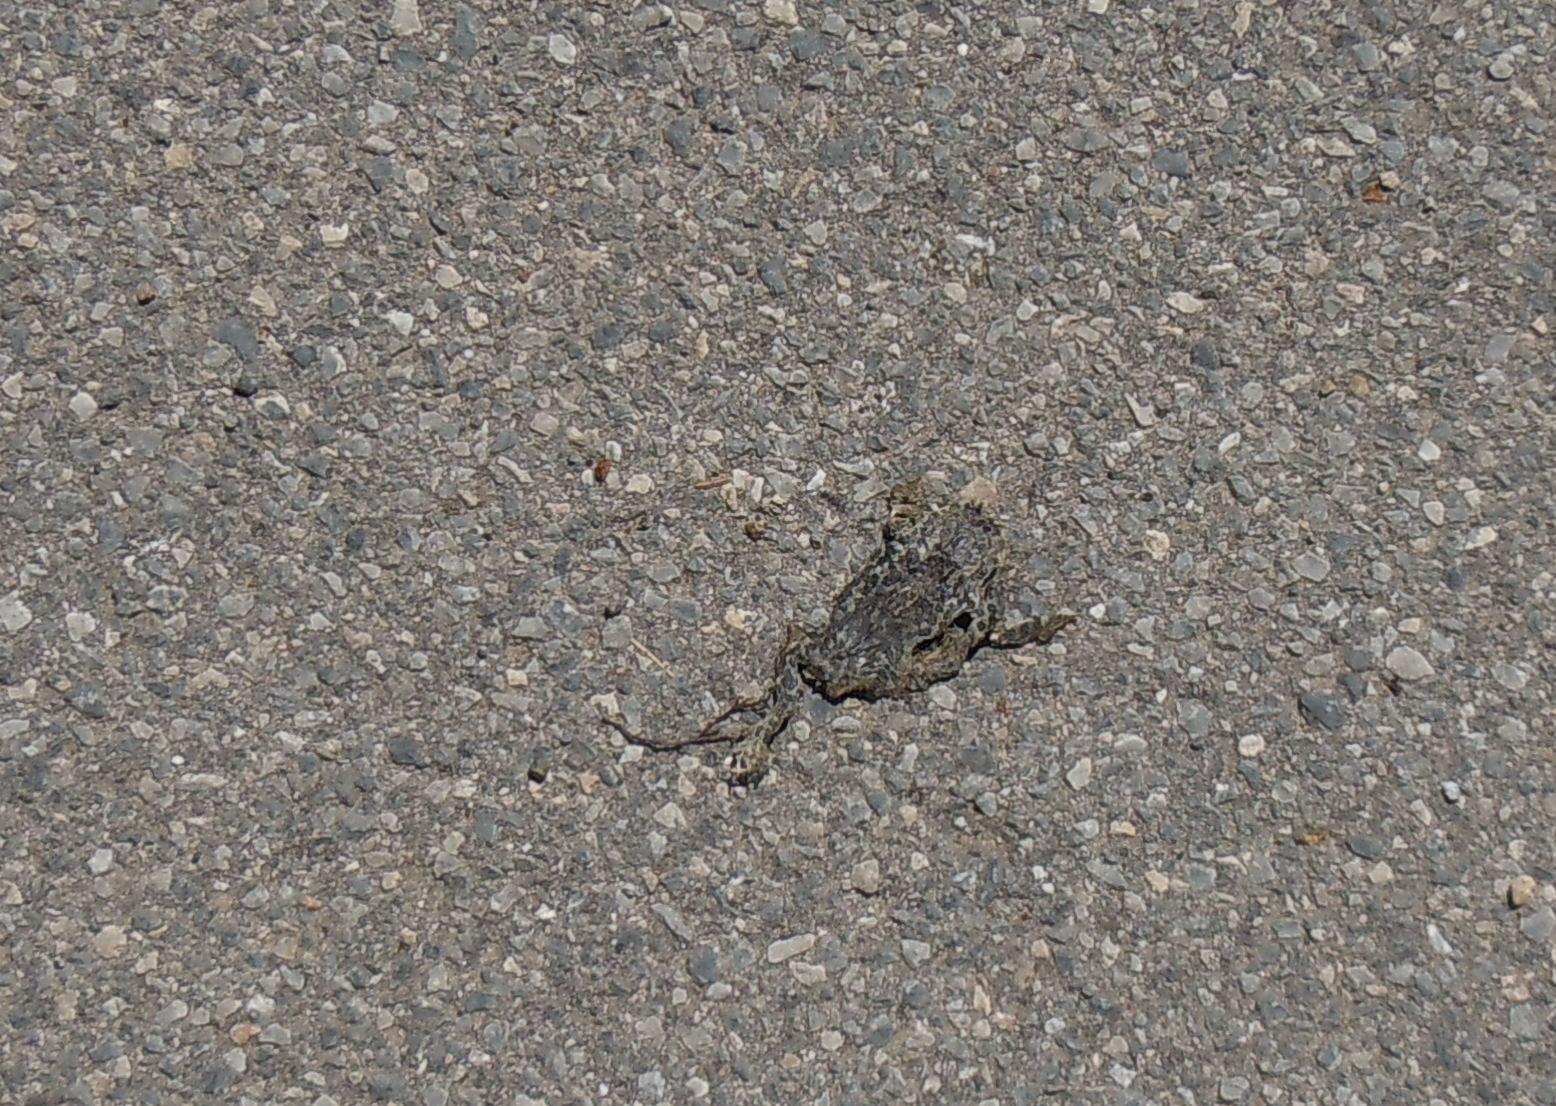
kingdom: Animalia
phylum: Chordata
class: Amphibia
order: Anura
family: Bufonidae
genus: Bufotes
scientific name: Bufotes viridis
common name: European green toad
